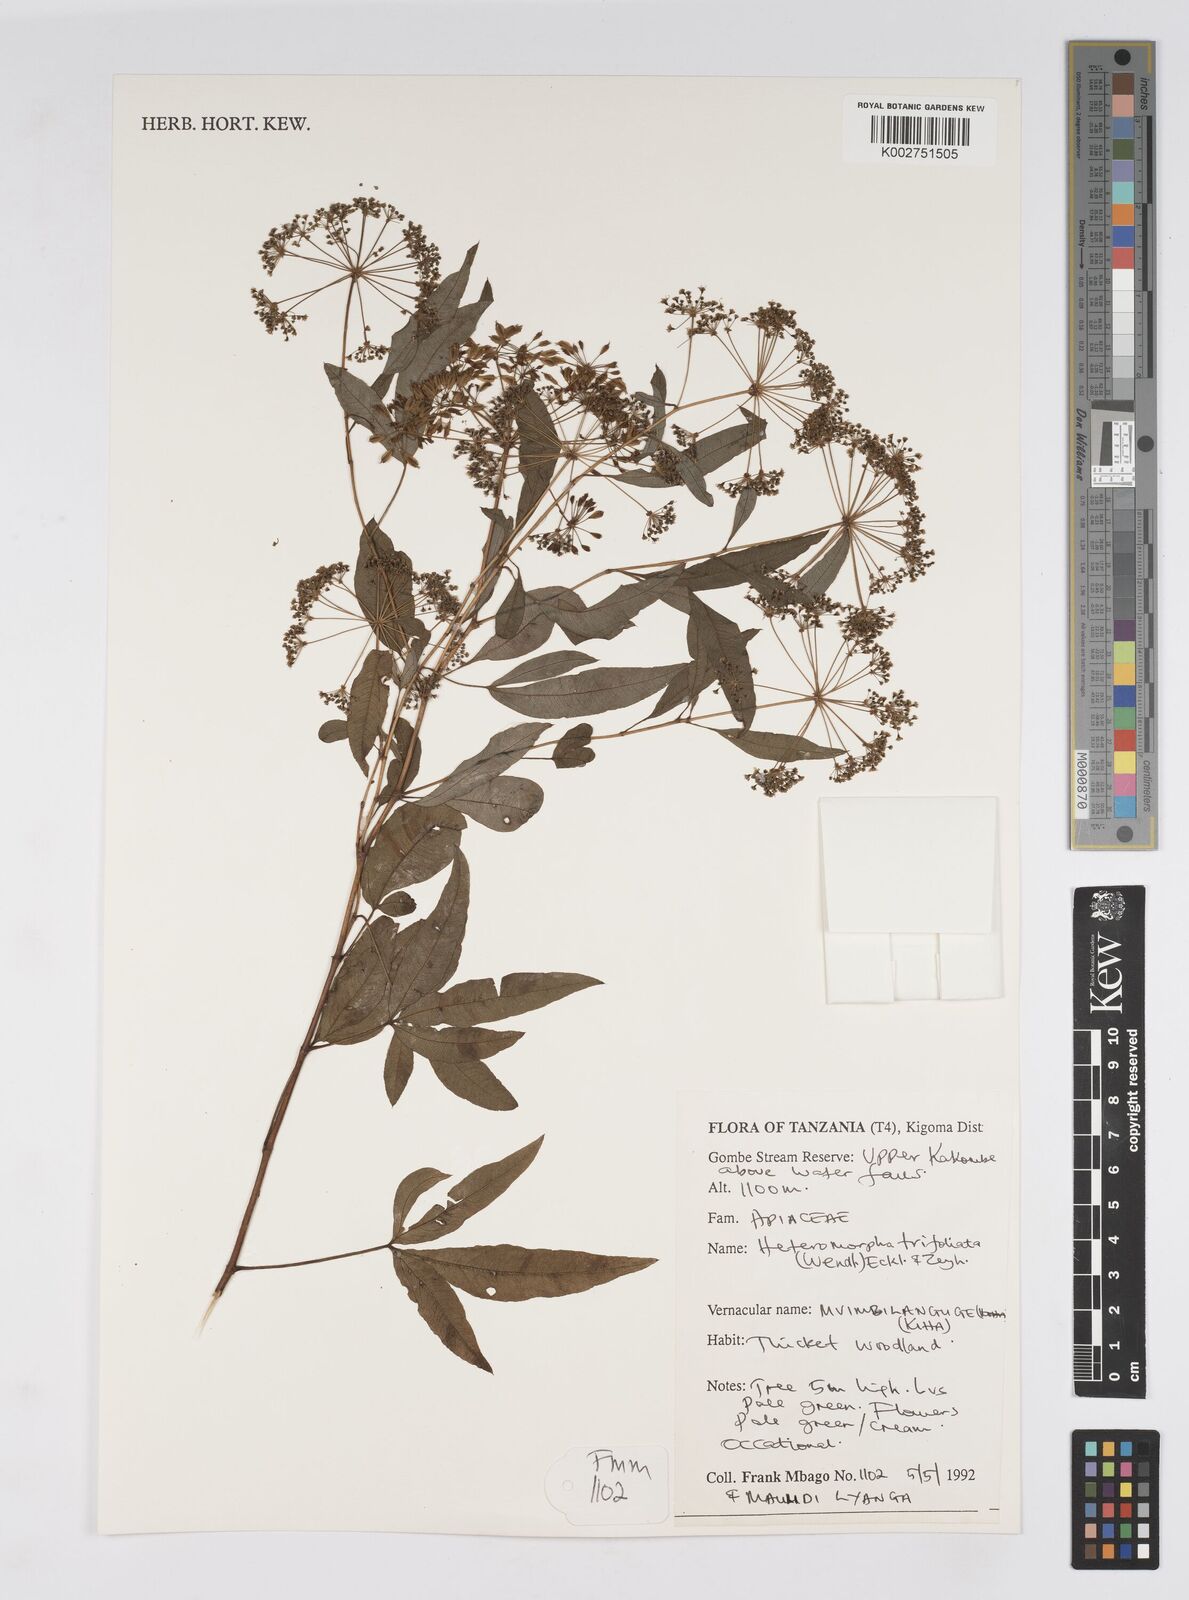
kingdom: Plantae
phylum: Tracheophyta
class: Magnoliopsida
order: Apiales
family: Apiaceae
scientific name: Apiaceae
